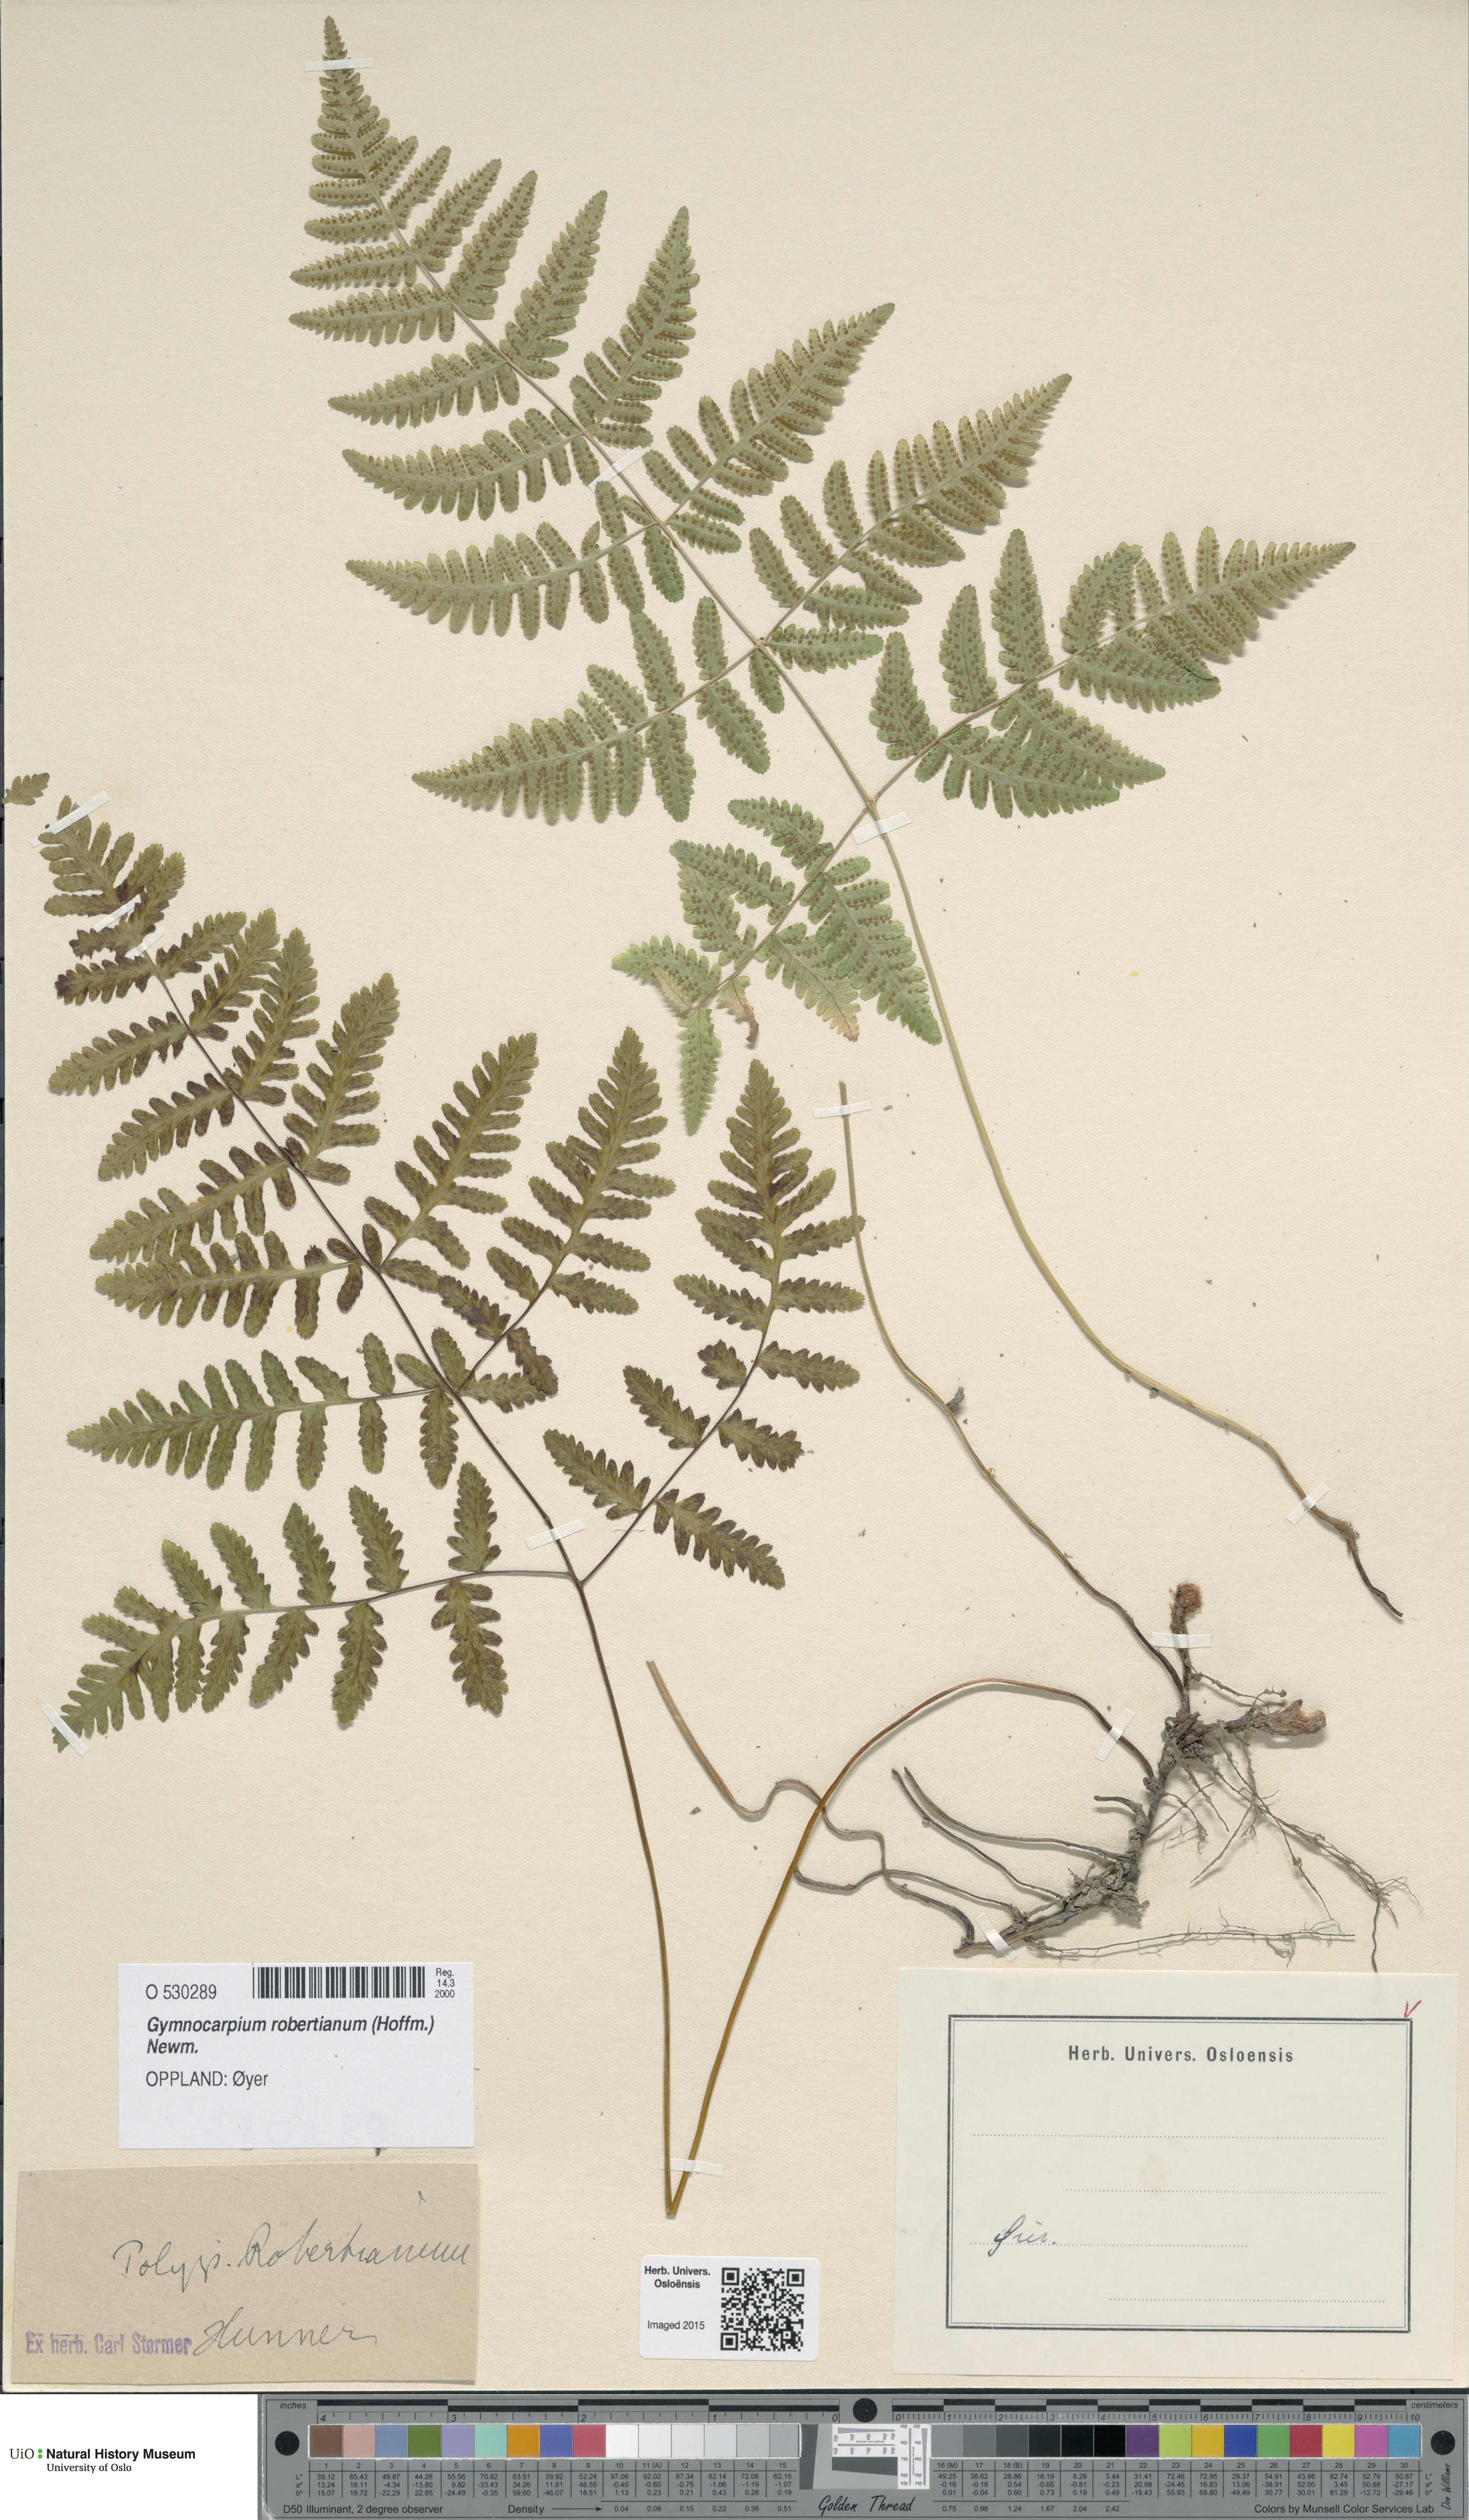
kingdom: Plantae
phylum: Tracheophyta
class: Polypodiopsida
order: Polypodiales
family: Cystopteridaceae
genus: Gymnocarpium
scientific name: Gymnocarpium robertianum
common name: Limestone fern
